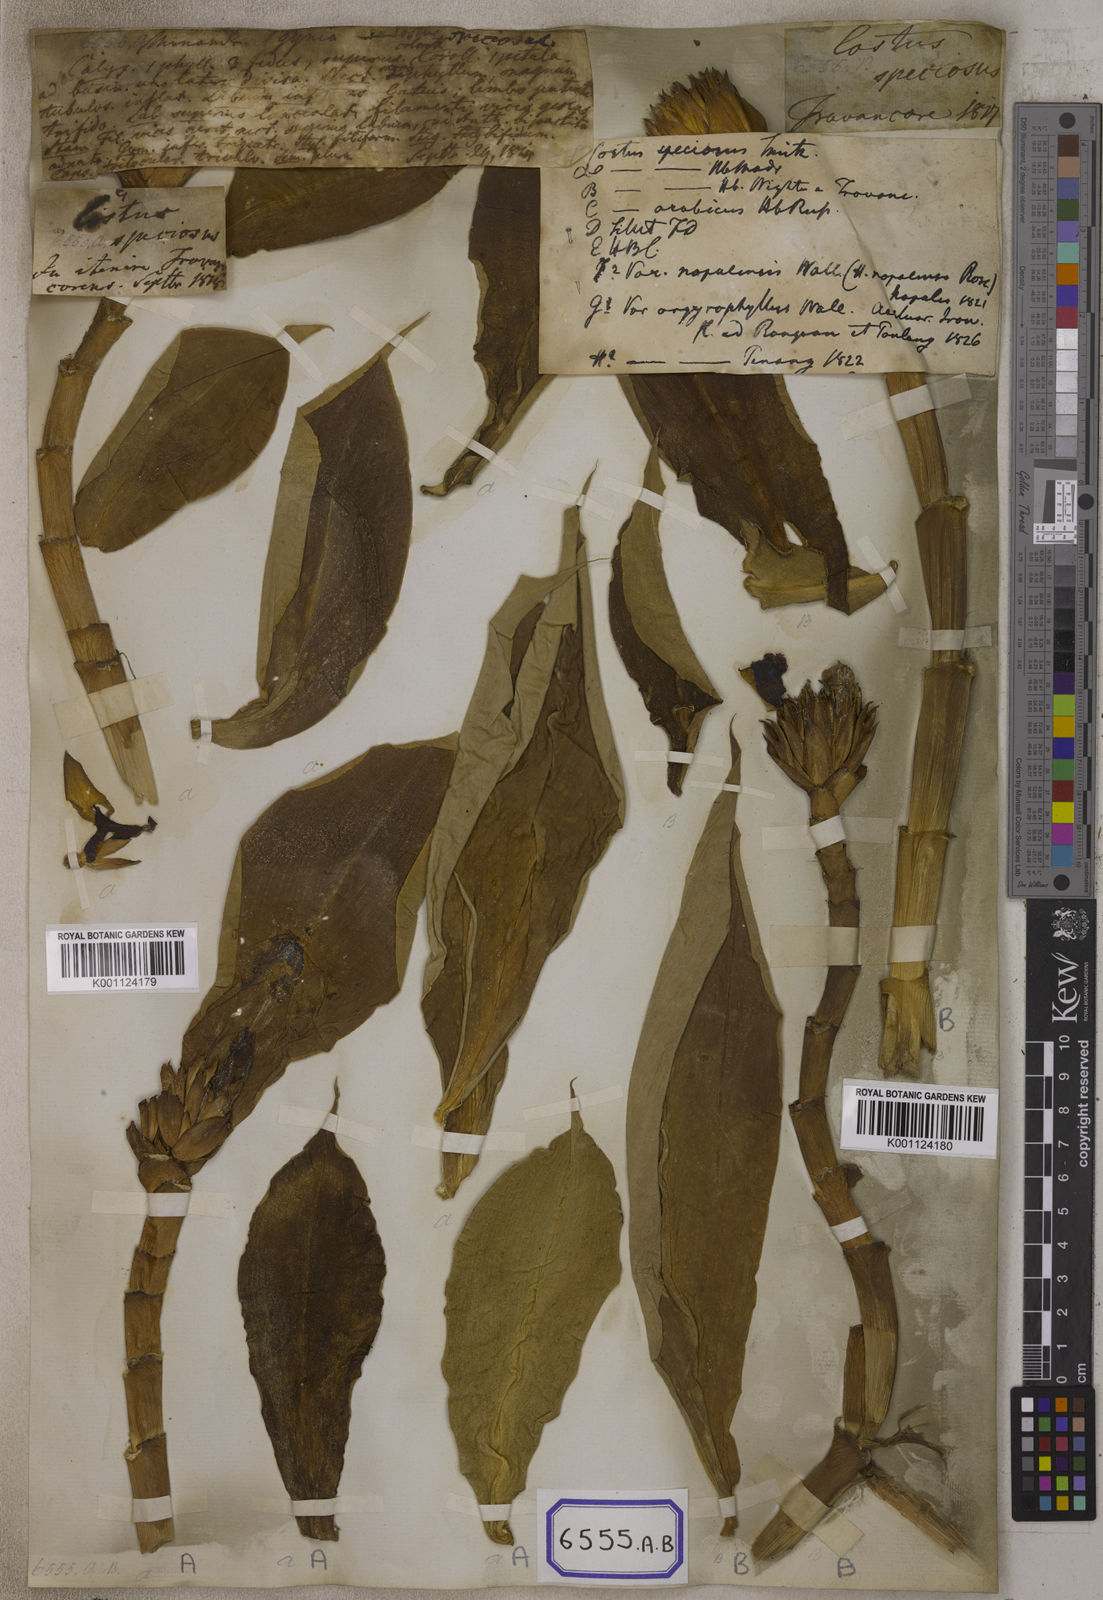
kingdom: Plantae
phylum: Tracheophyta
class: Liliopsida
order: Zingiberales
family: Costaceae
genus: Hellenia
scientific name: Hellenia speciosa
